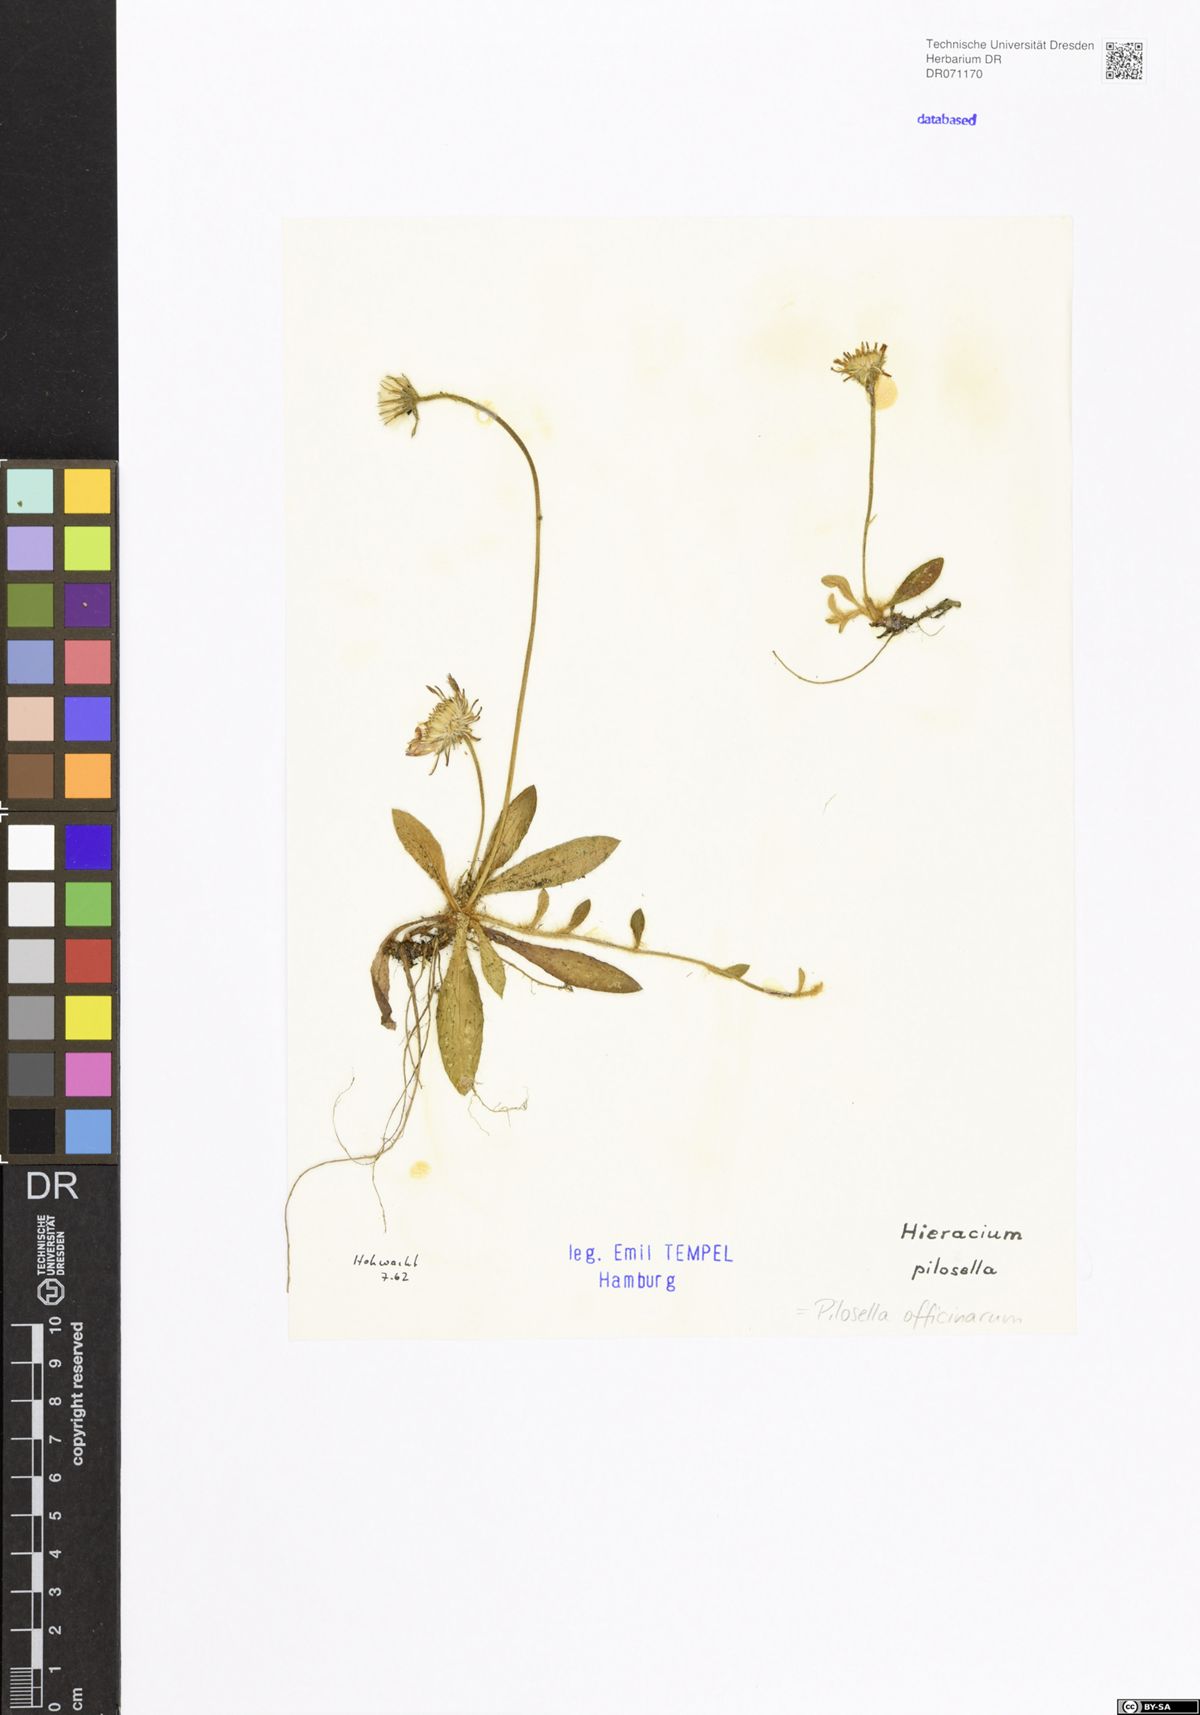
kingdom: Plantae
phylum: Tracheophyta
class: Magnoliopsida
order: Asterales
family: Asteraceae
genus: Pilosella
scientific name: Pilosella officinarum
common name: Mouse-ear hawkweed
